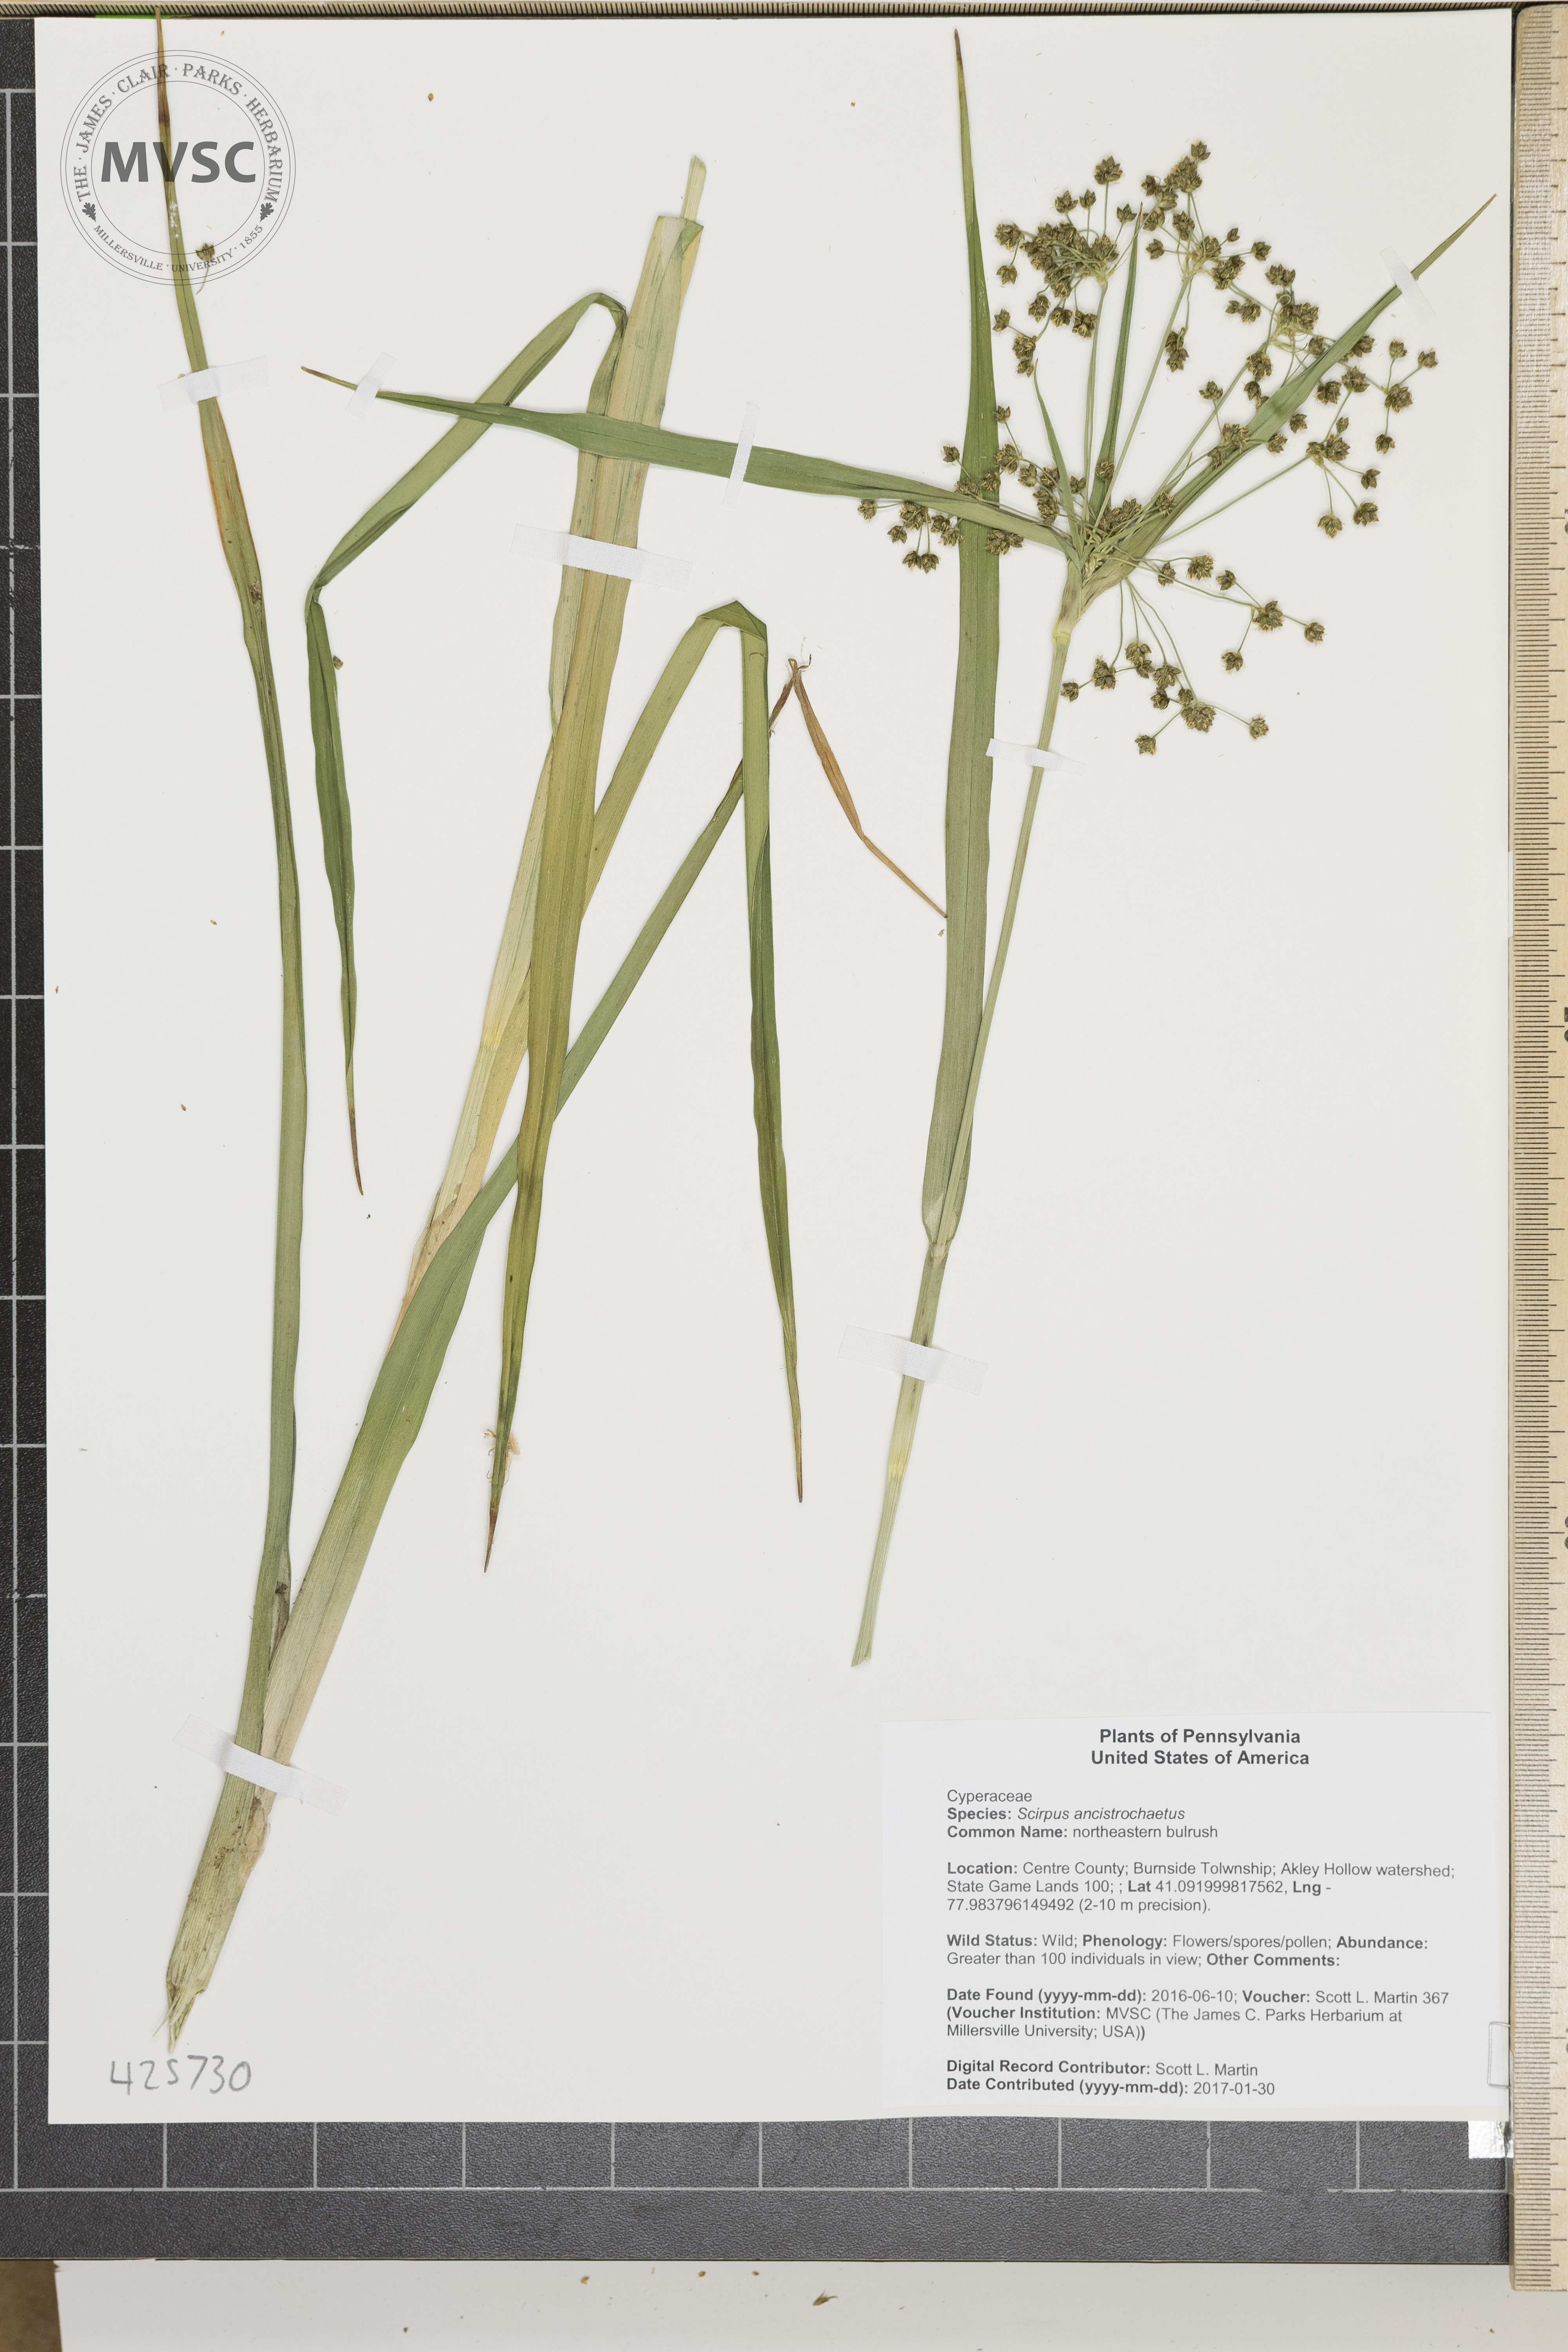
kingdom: Plantae
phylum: Tracheophyta
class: Liliopsida
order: Poales
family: Cyperaceae
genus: Scirpus
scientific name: Scirpus ancistrochaetus
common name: northeastern bulrush
